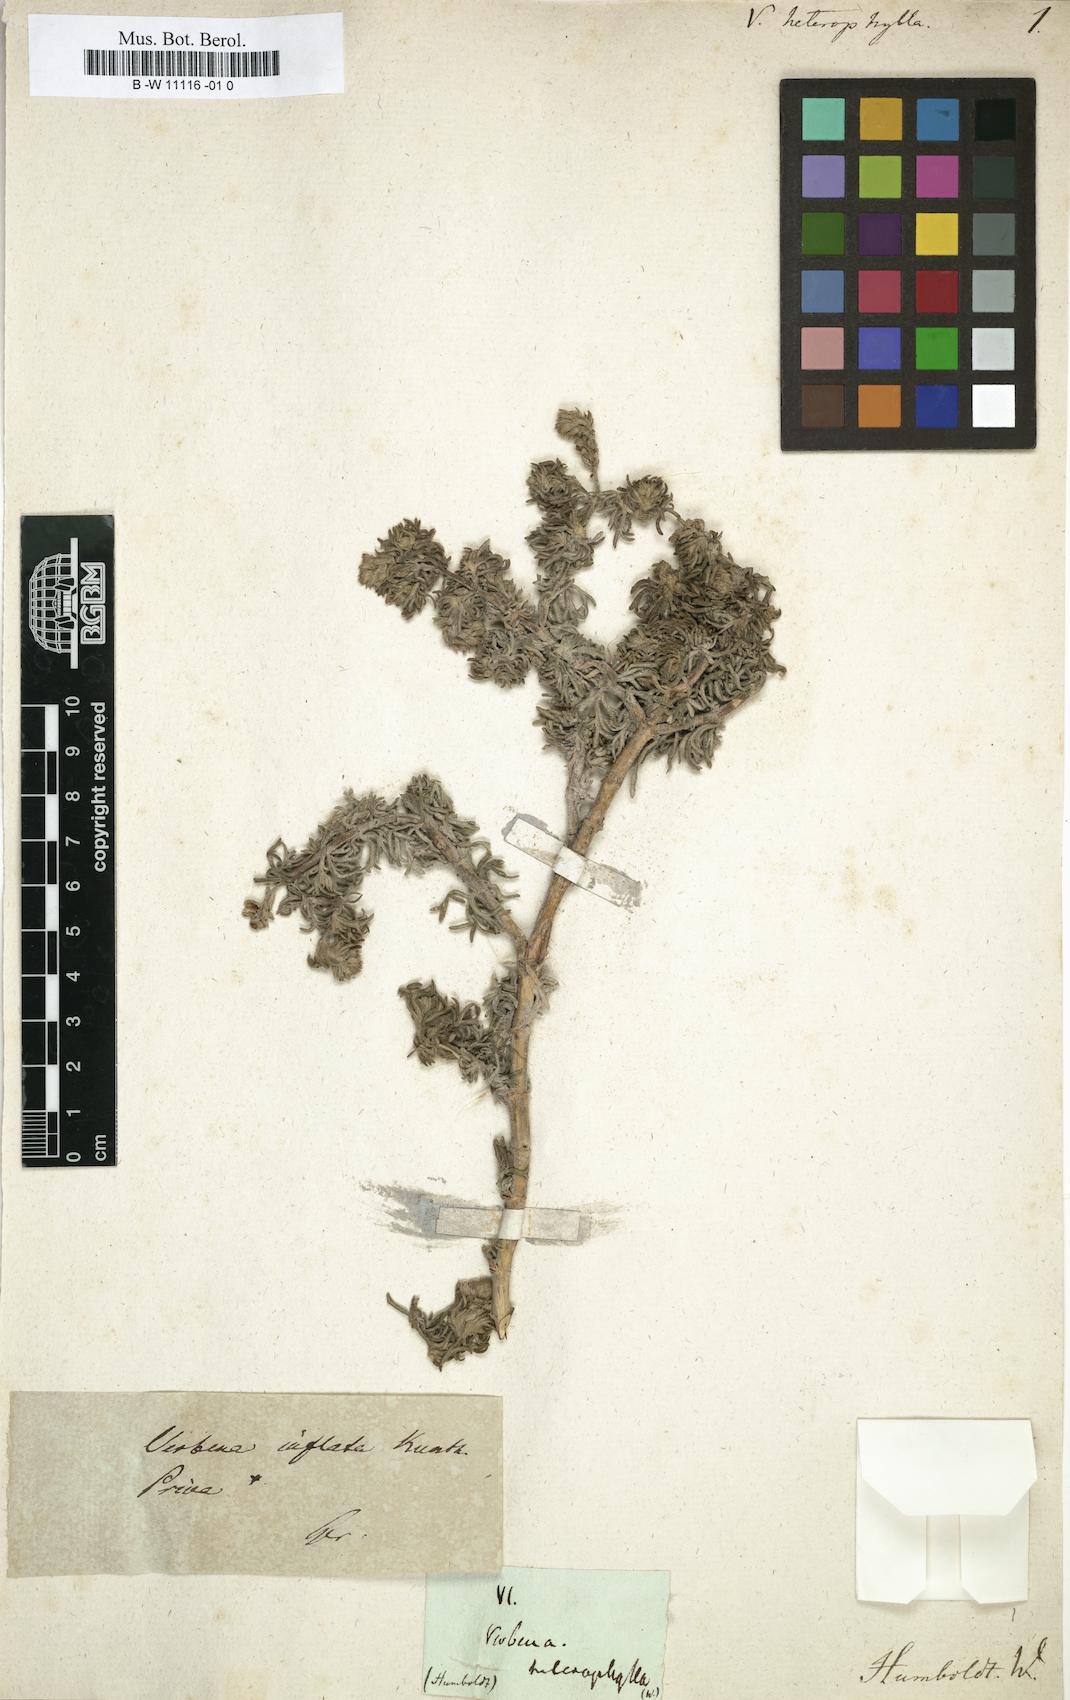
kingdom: Plantae
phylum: Tracheophyta
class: Magnoliopsida
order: Lamiales
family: Verbenaceae
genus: Hierobotana
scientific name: Hierobotana inflata
